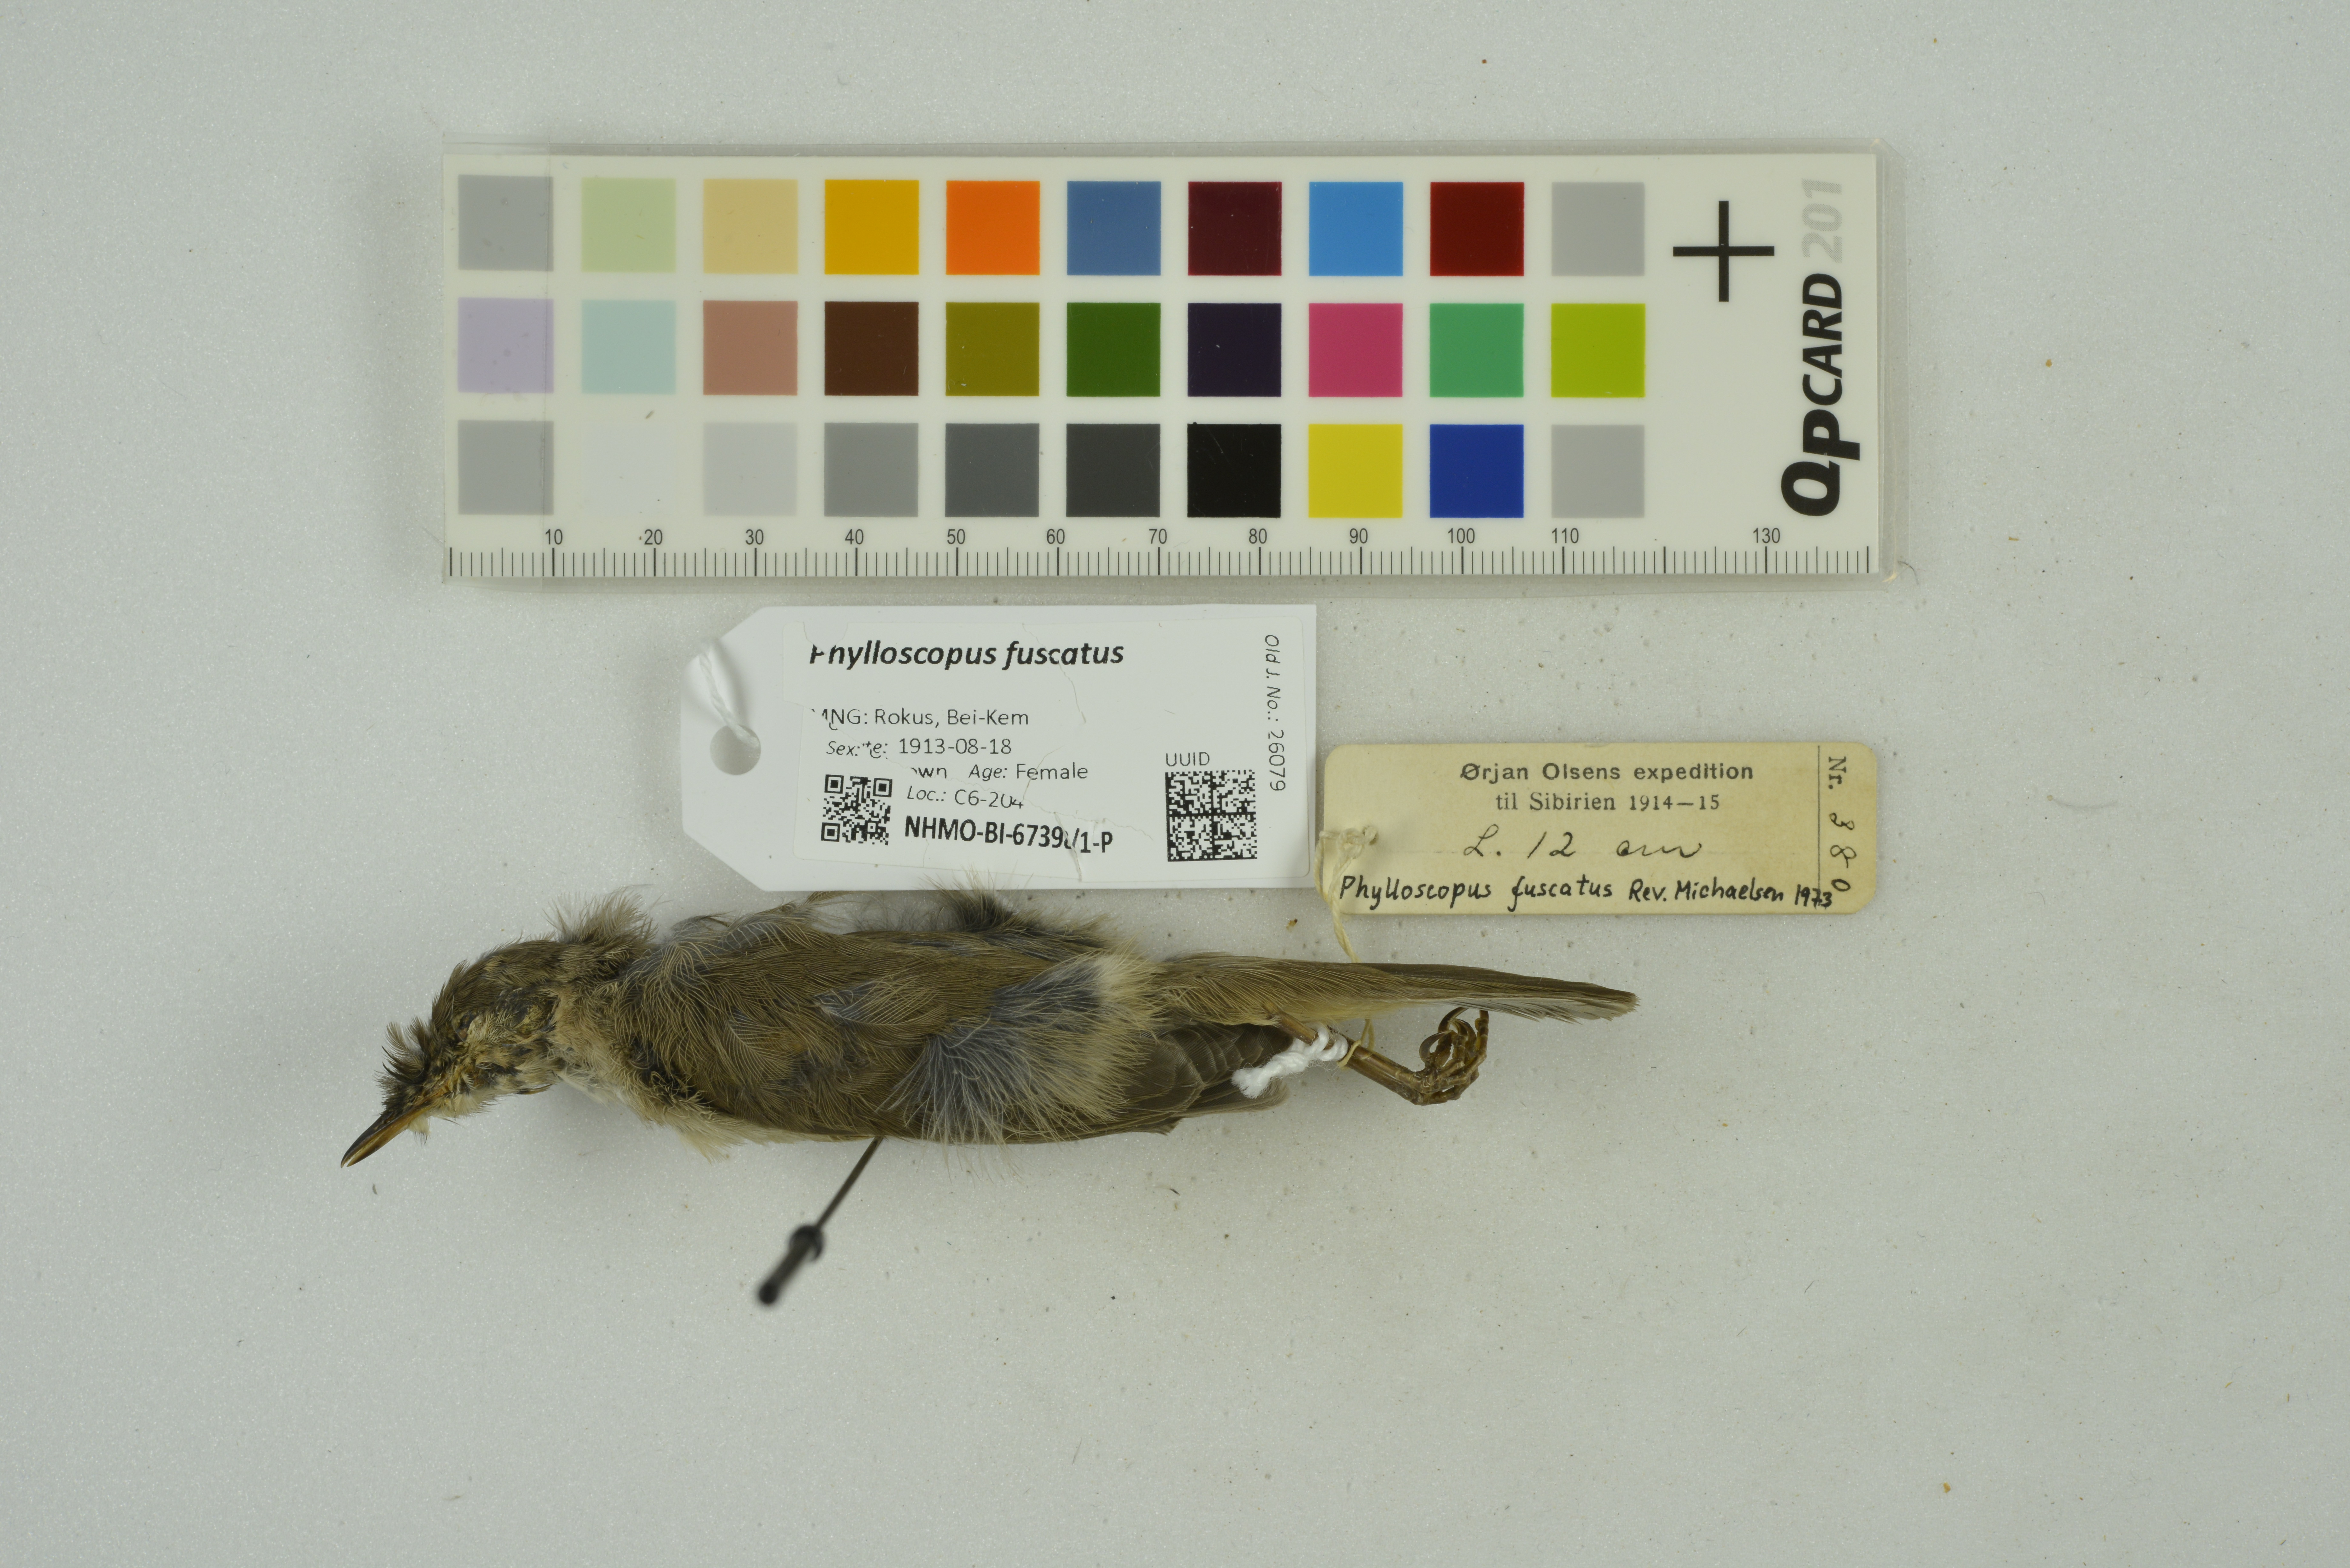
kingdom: Animalia
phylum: Chordata
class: Aves
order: Passeriformes
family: Phylloscopidae
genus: Phylloscopus
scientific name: Phylloscopus fuscatus
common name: Dusky warbler
